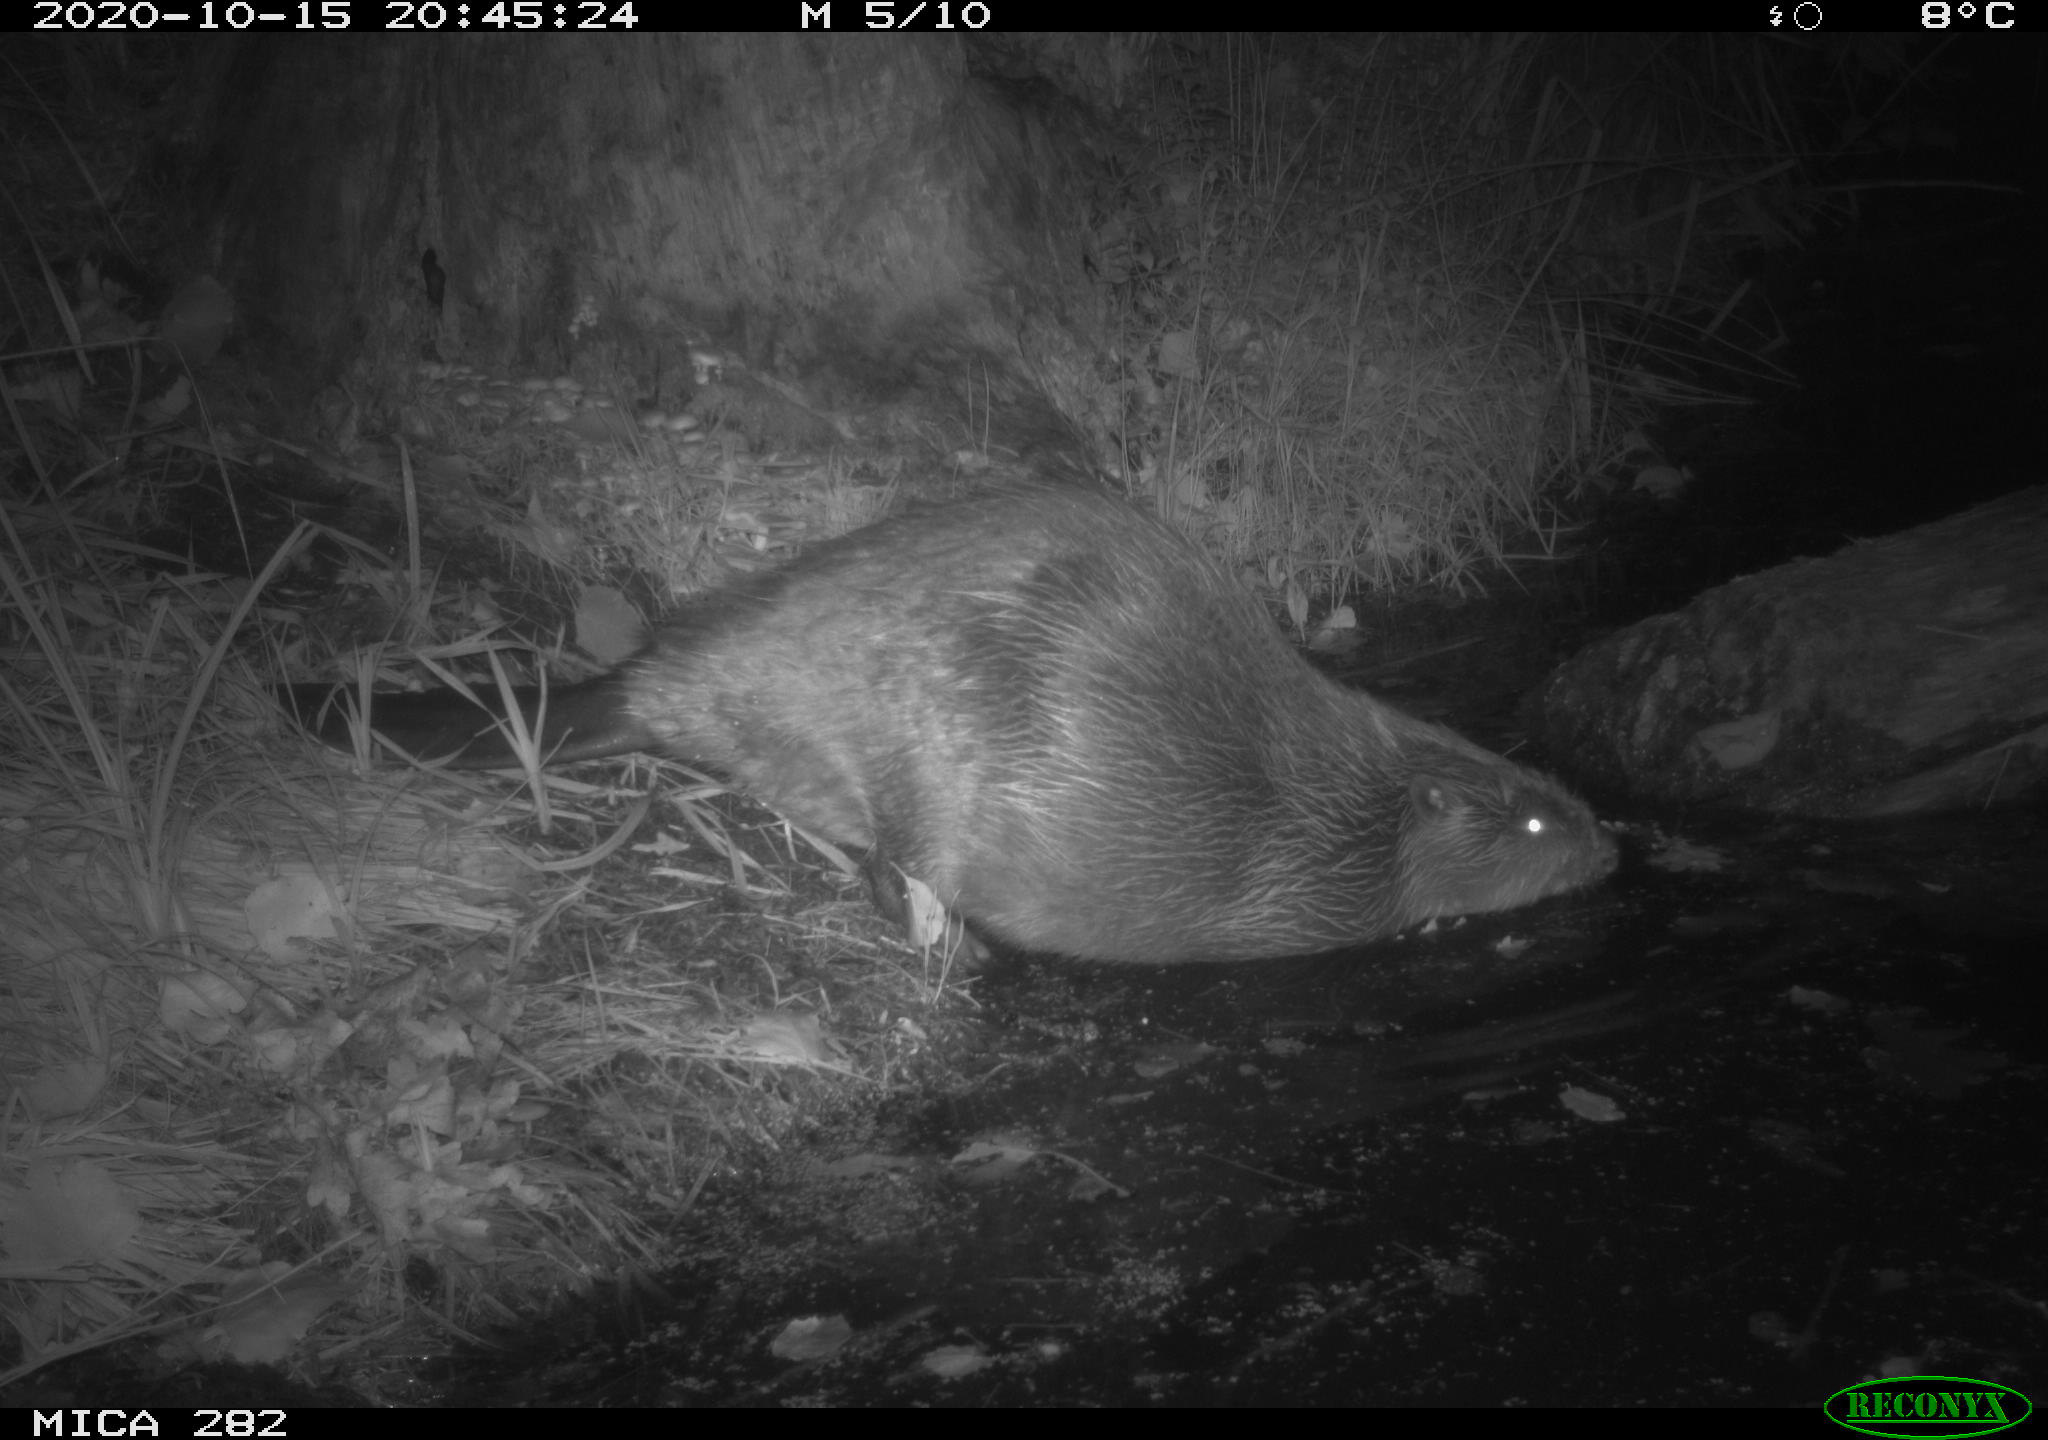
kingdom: Animalia
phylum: Chordata
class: Mammalia
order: Rodentia
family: Castoridae
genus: Castor
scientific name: Castor fiber
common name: Eurasian beaver
